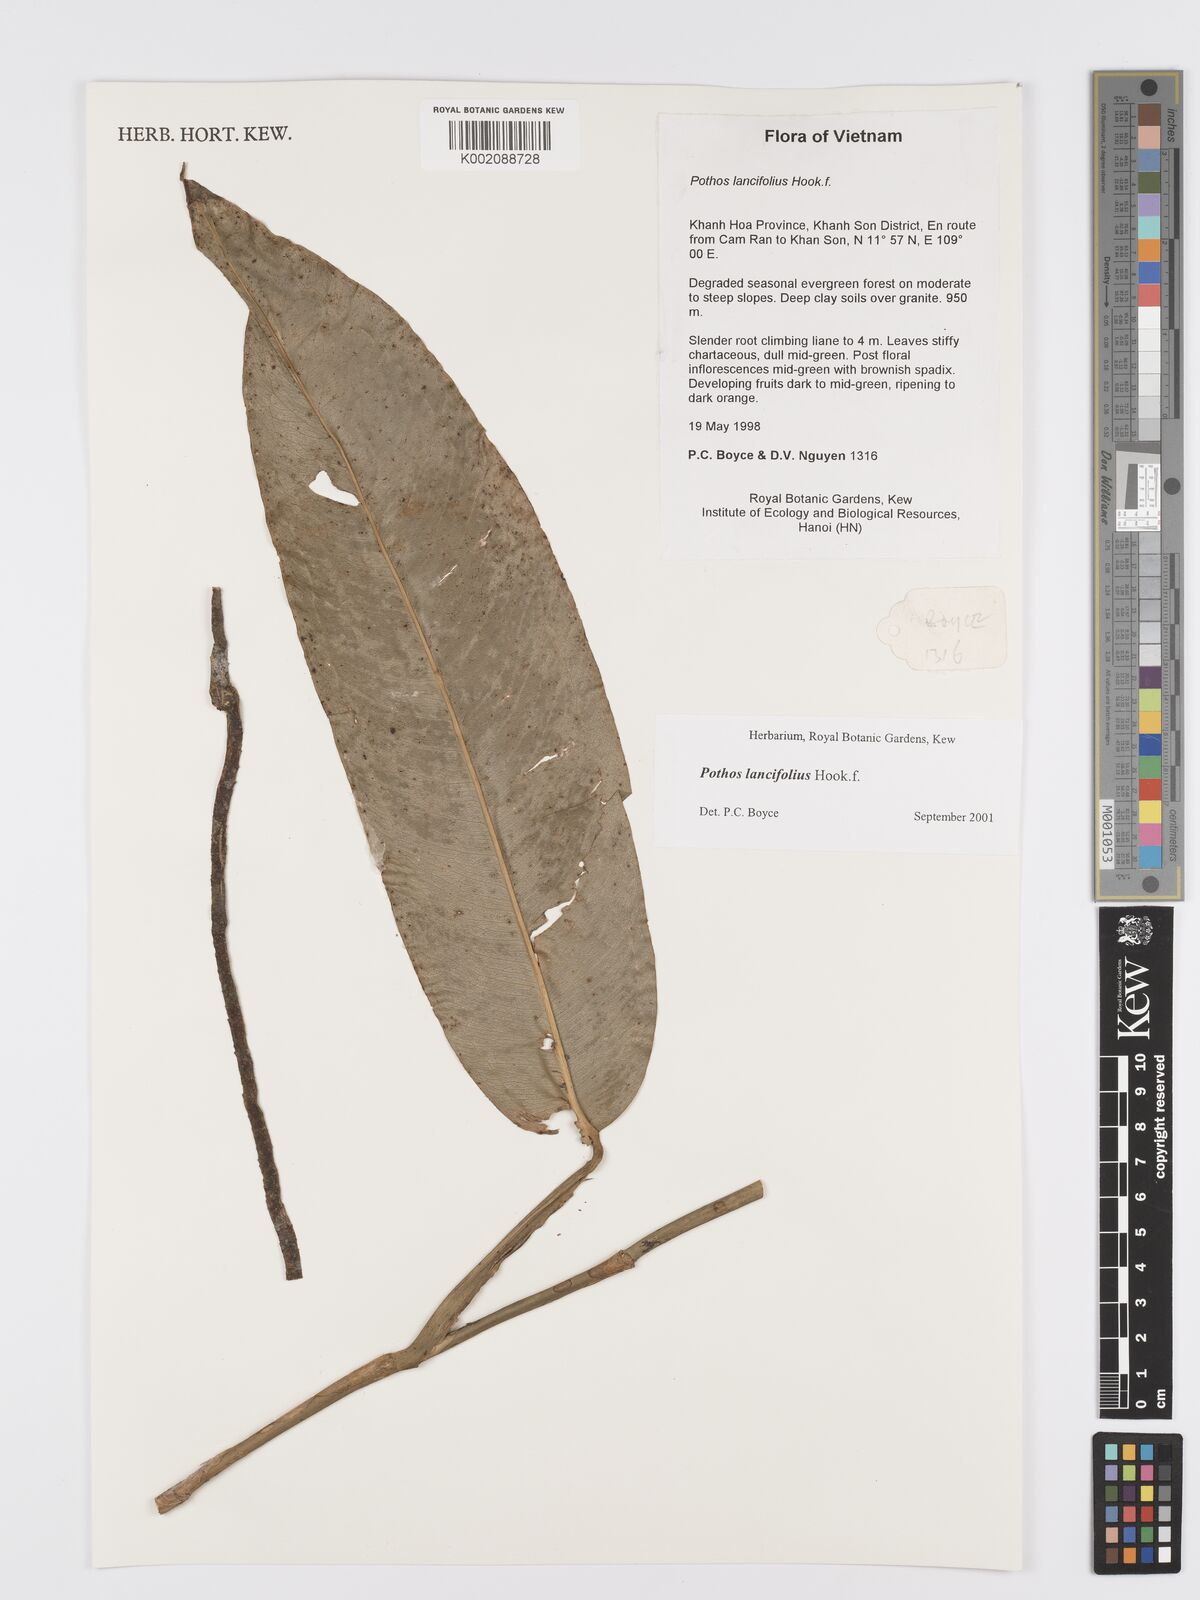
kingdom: Plantae
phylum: Tracheophyta
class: Liliopsida
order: Alismatales
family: Araceae
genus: Pothos
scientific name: Pothos lancifolius
